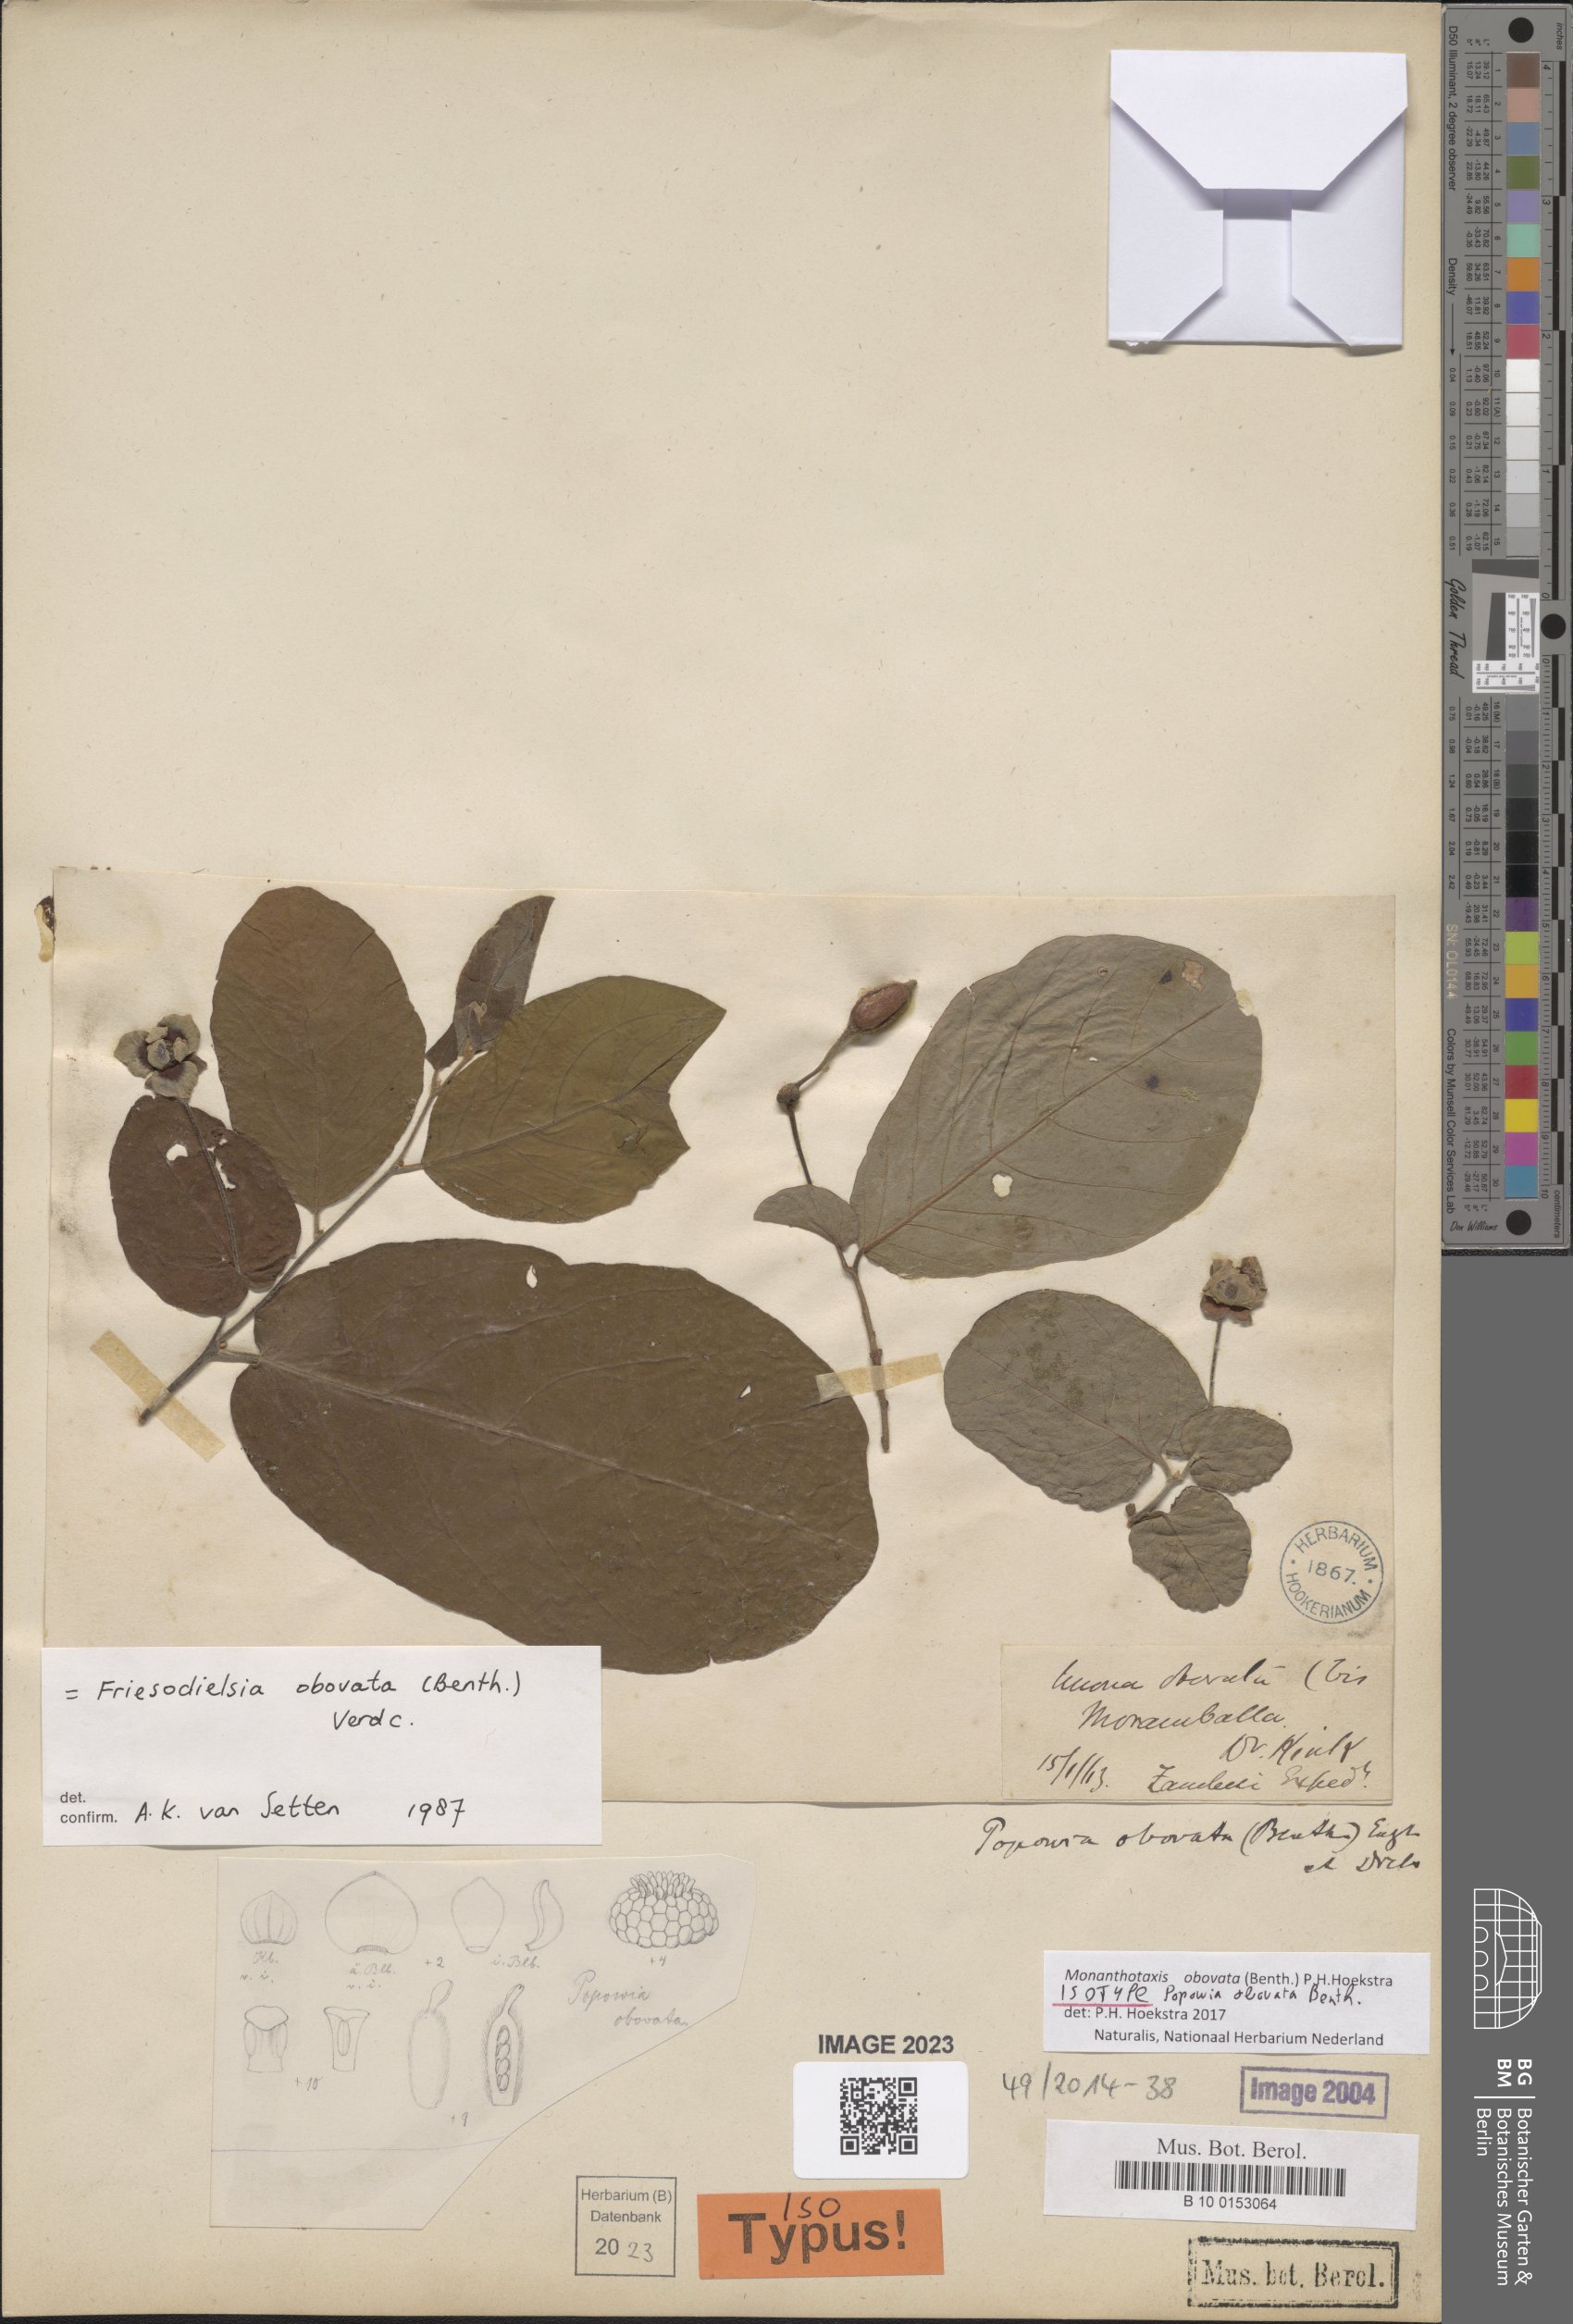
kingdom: Plantae
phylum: Tracheophyta
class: Magnoliopsida
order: Magnoliales
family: Annonaceae
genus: Friesodielsia
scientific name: Friesodielsia obovata
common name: Monkey fingers
